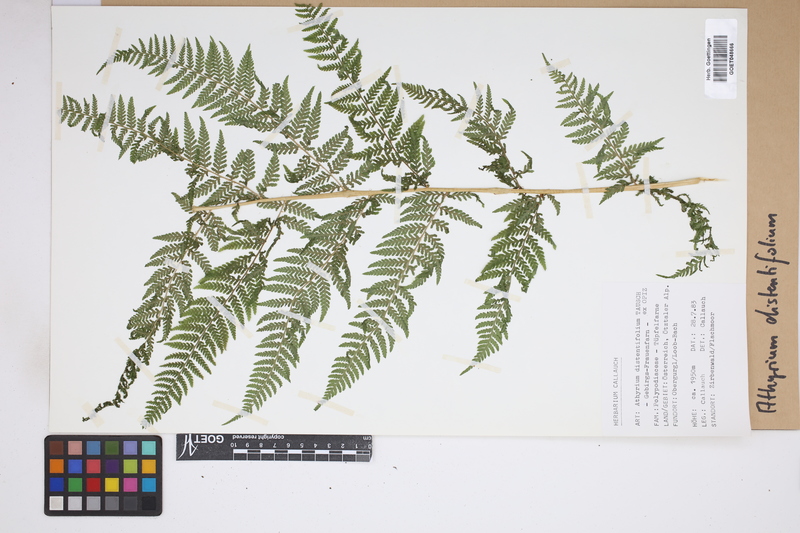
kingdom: Plantae
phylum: Tracheophyta
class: Polypodiopsida
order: Polypodiales
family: Athyriaceae
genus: Pseudathyrium
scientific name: Pseudathyrium alpestre
